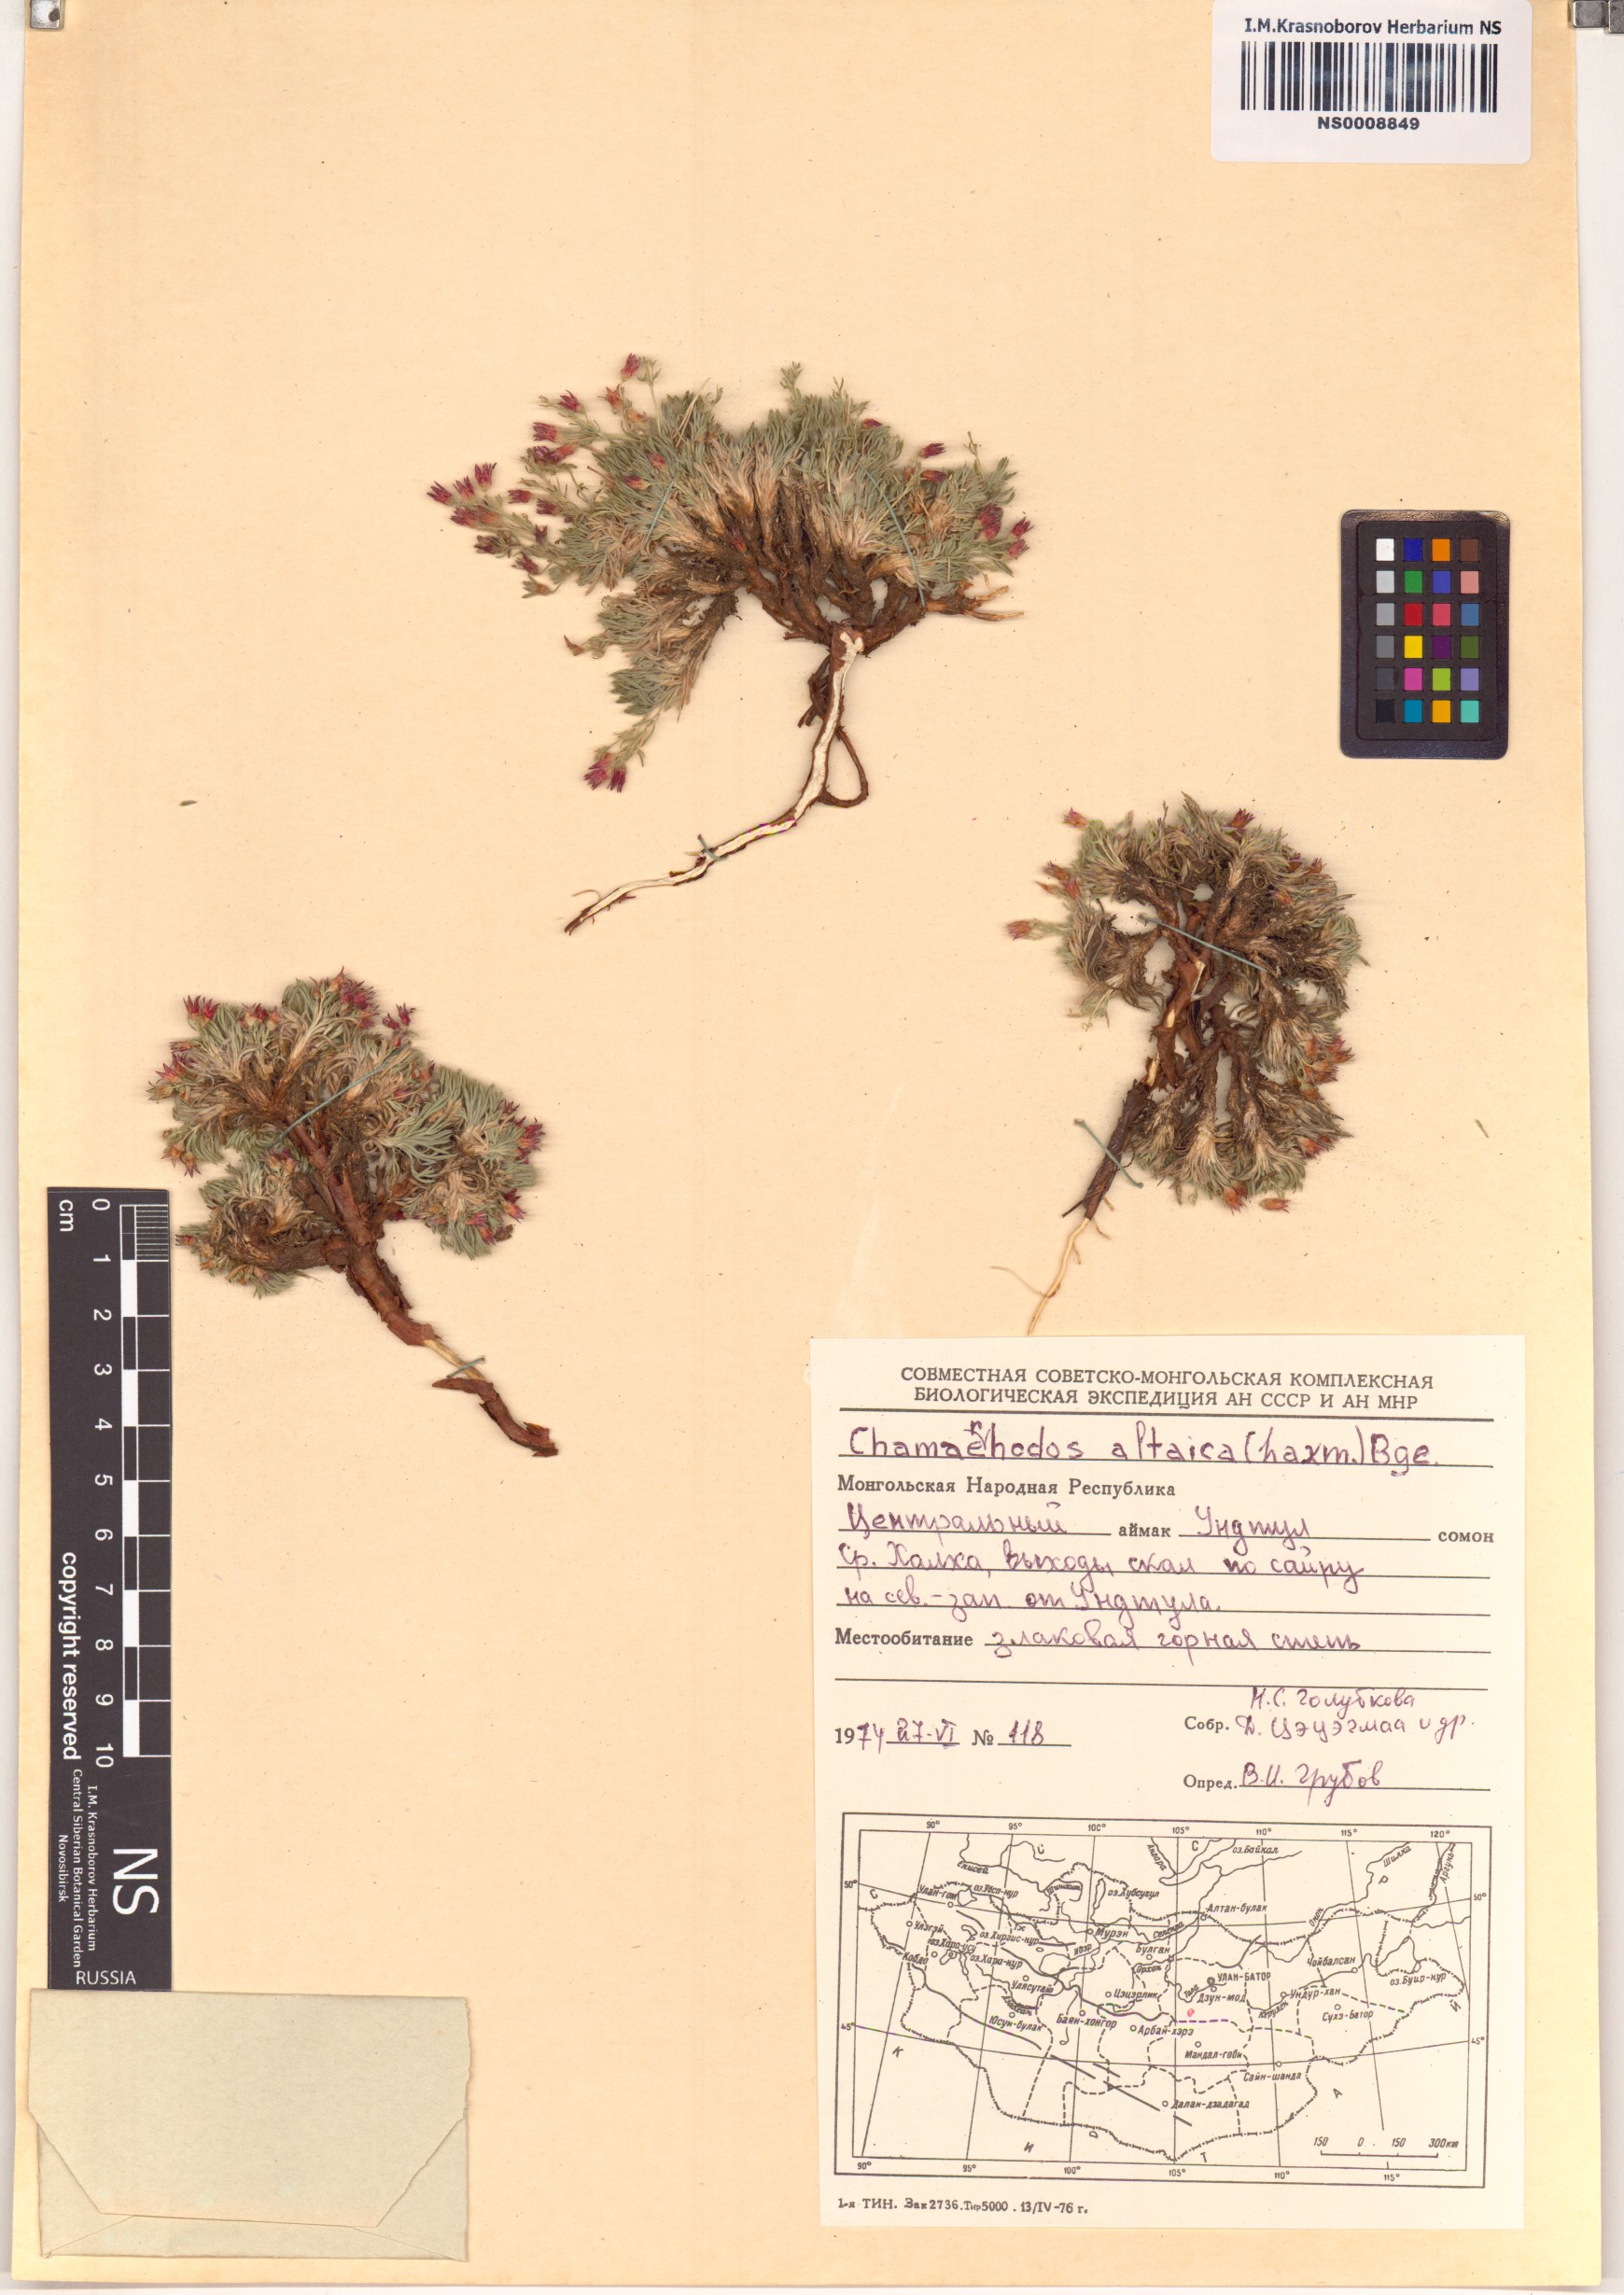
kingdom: Plantae
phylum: Tracheophyta
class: Magnoliopsida
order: Rosales
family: Rosaceae
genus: Chamaerhodos
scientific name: Chamaerhodos altaica
